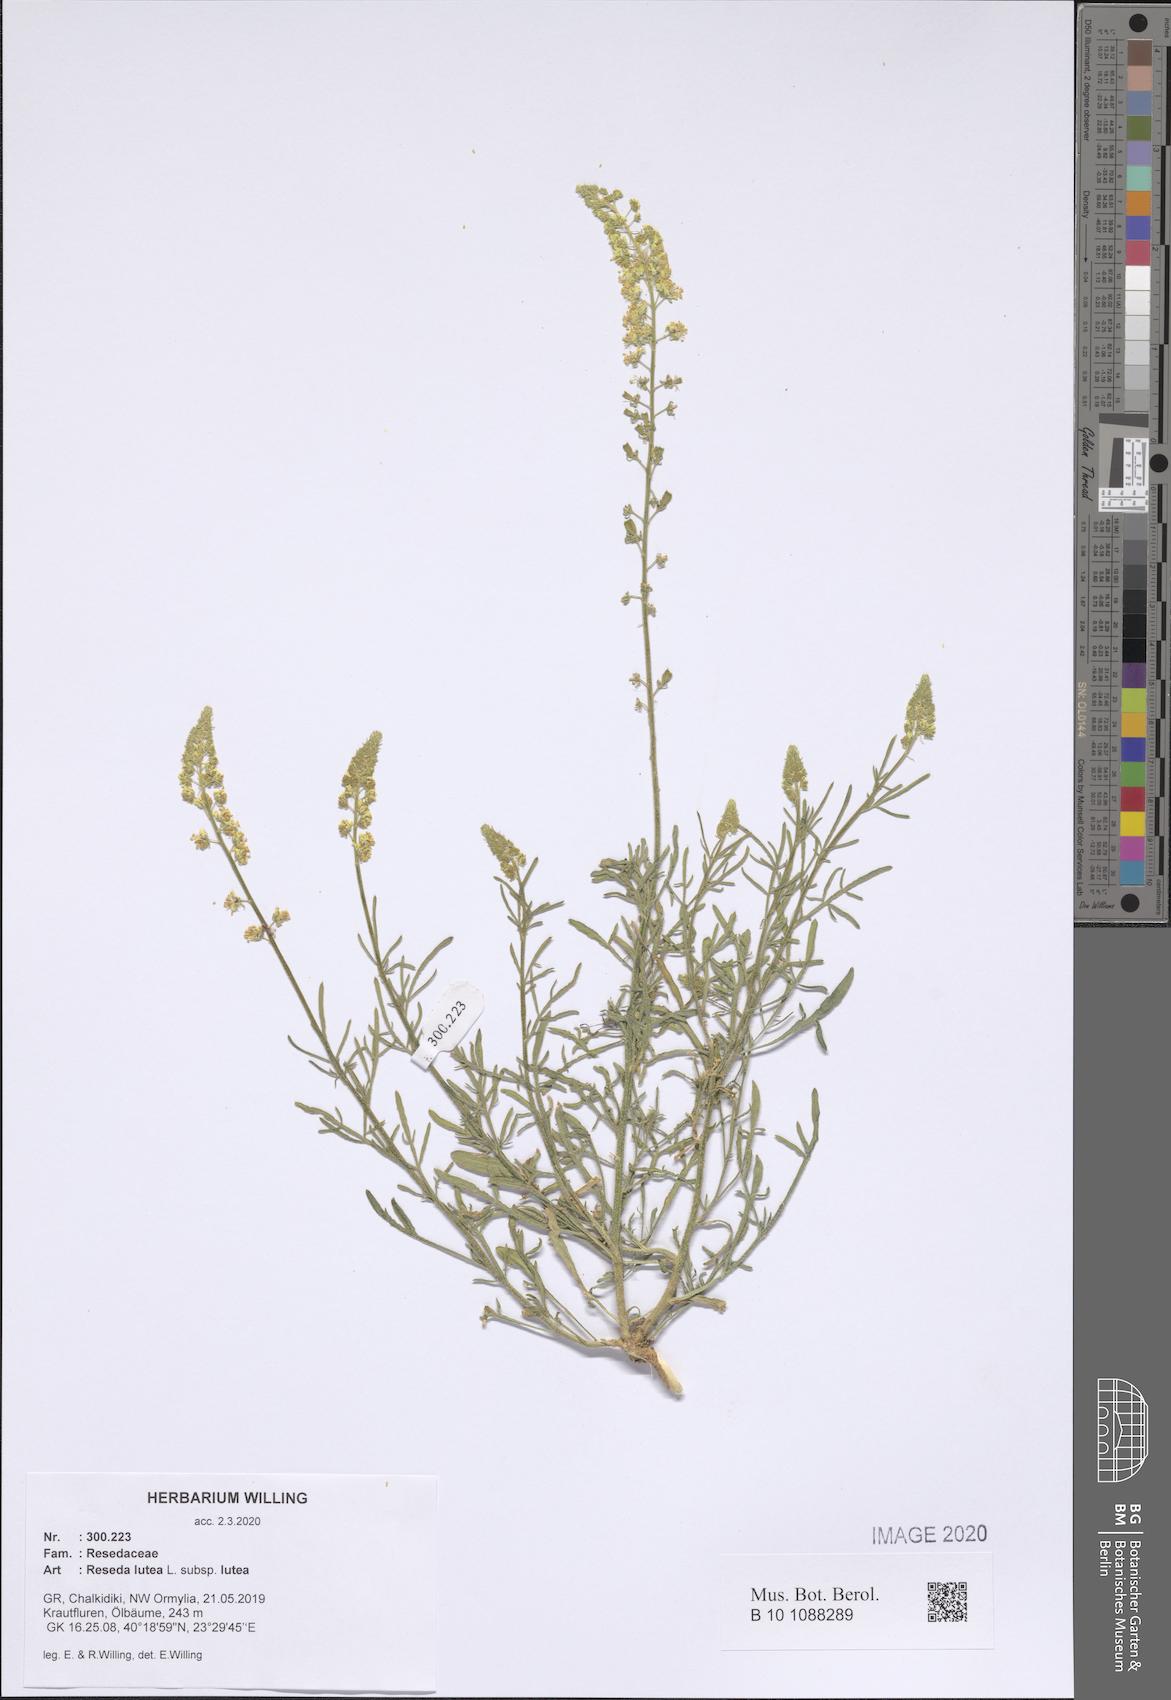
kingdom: Plantae
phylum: Tracheophyta
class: Magnoliopsida
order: Brassicales
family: Resedaceae
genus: Reseda
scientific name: Reseda lutea
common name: Wild mignonette
